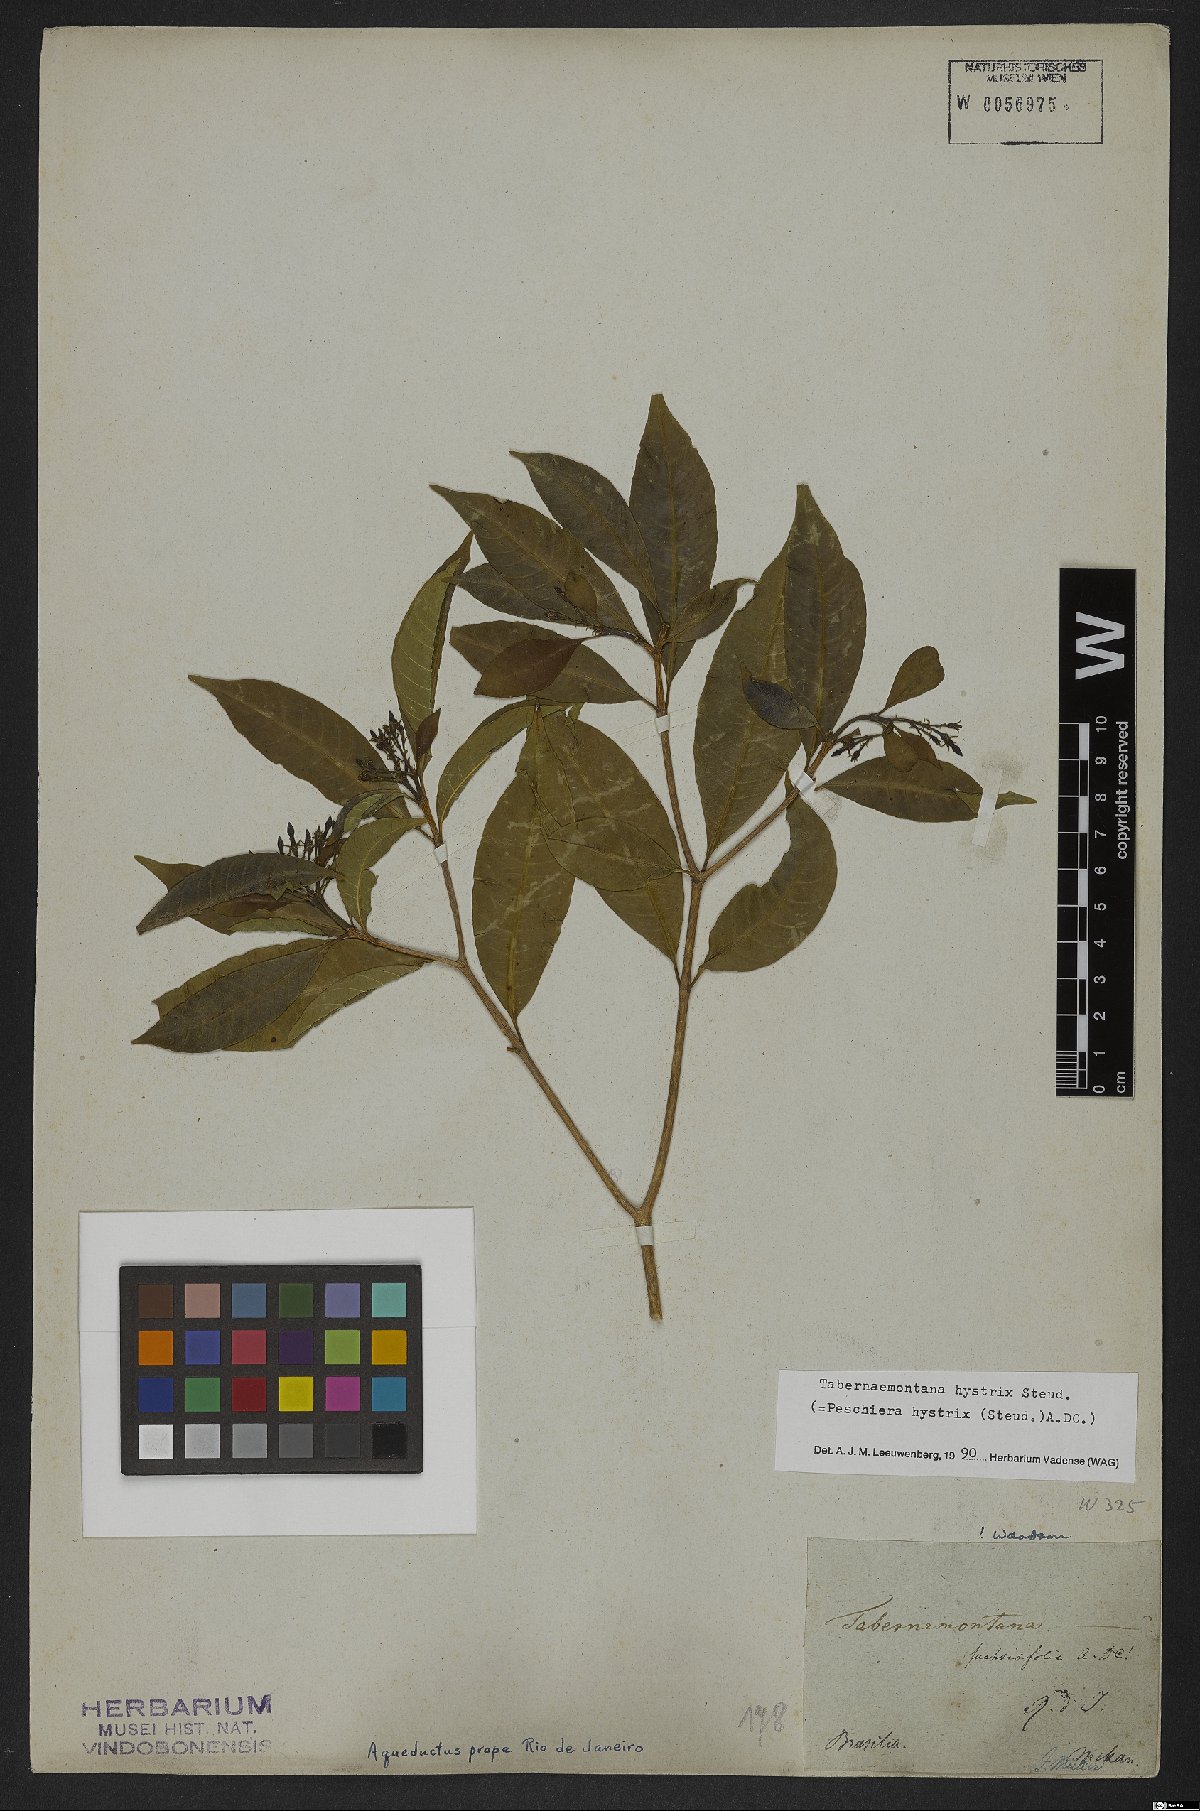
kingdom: Plantae
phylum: Tracheophyta
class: Magnoliopsida
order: Gentianales
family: Apocynaceae
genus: Tabernaemontana
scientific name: Tabernaemontana hystrix
